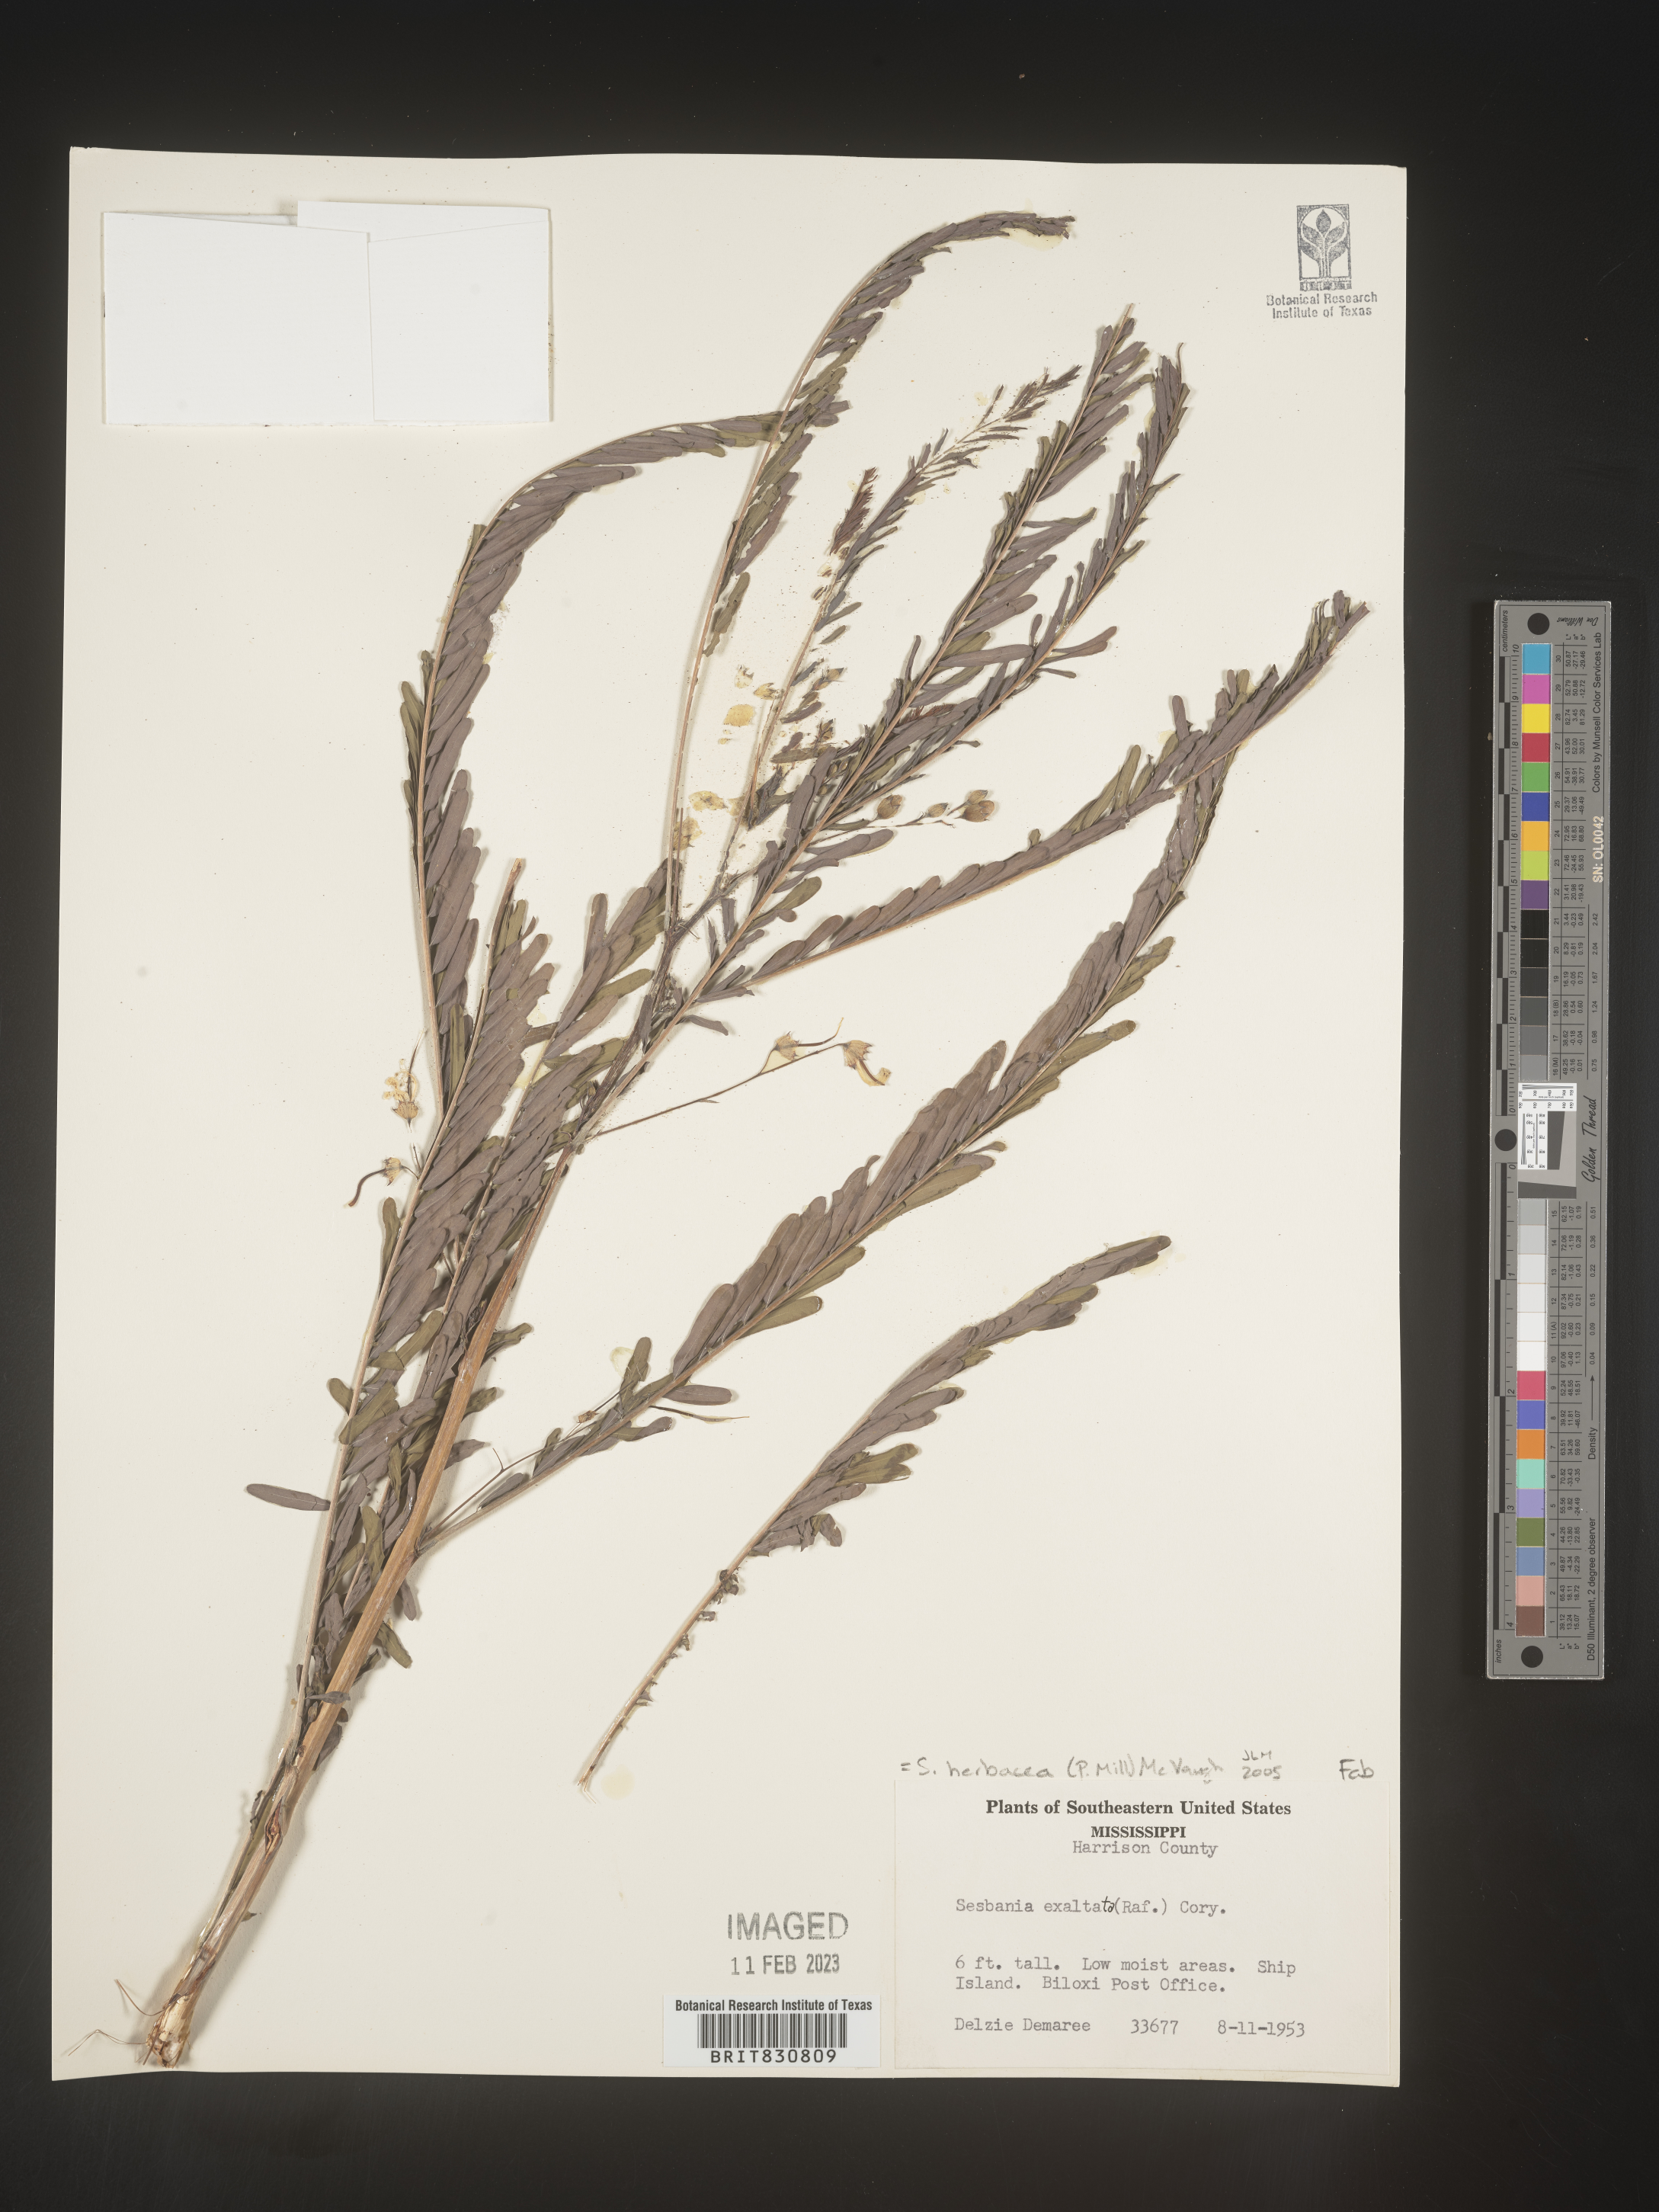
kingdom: Plantae
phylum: Tracheophyta
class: Magnoliopsida
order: Fabales
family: Fabaceae
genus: Sesbania
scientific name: Sesbania herbacea
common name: Bigpod sesbania
